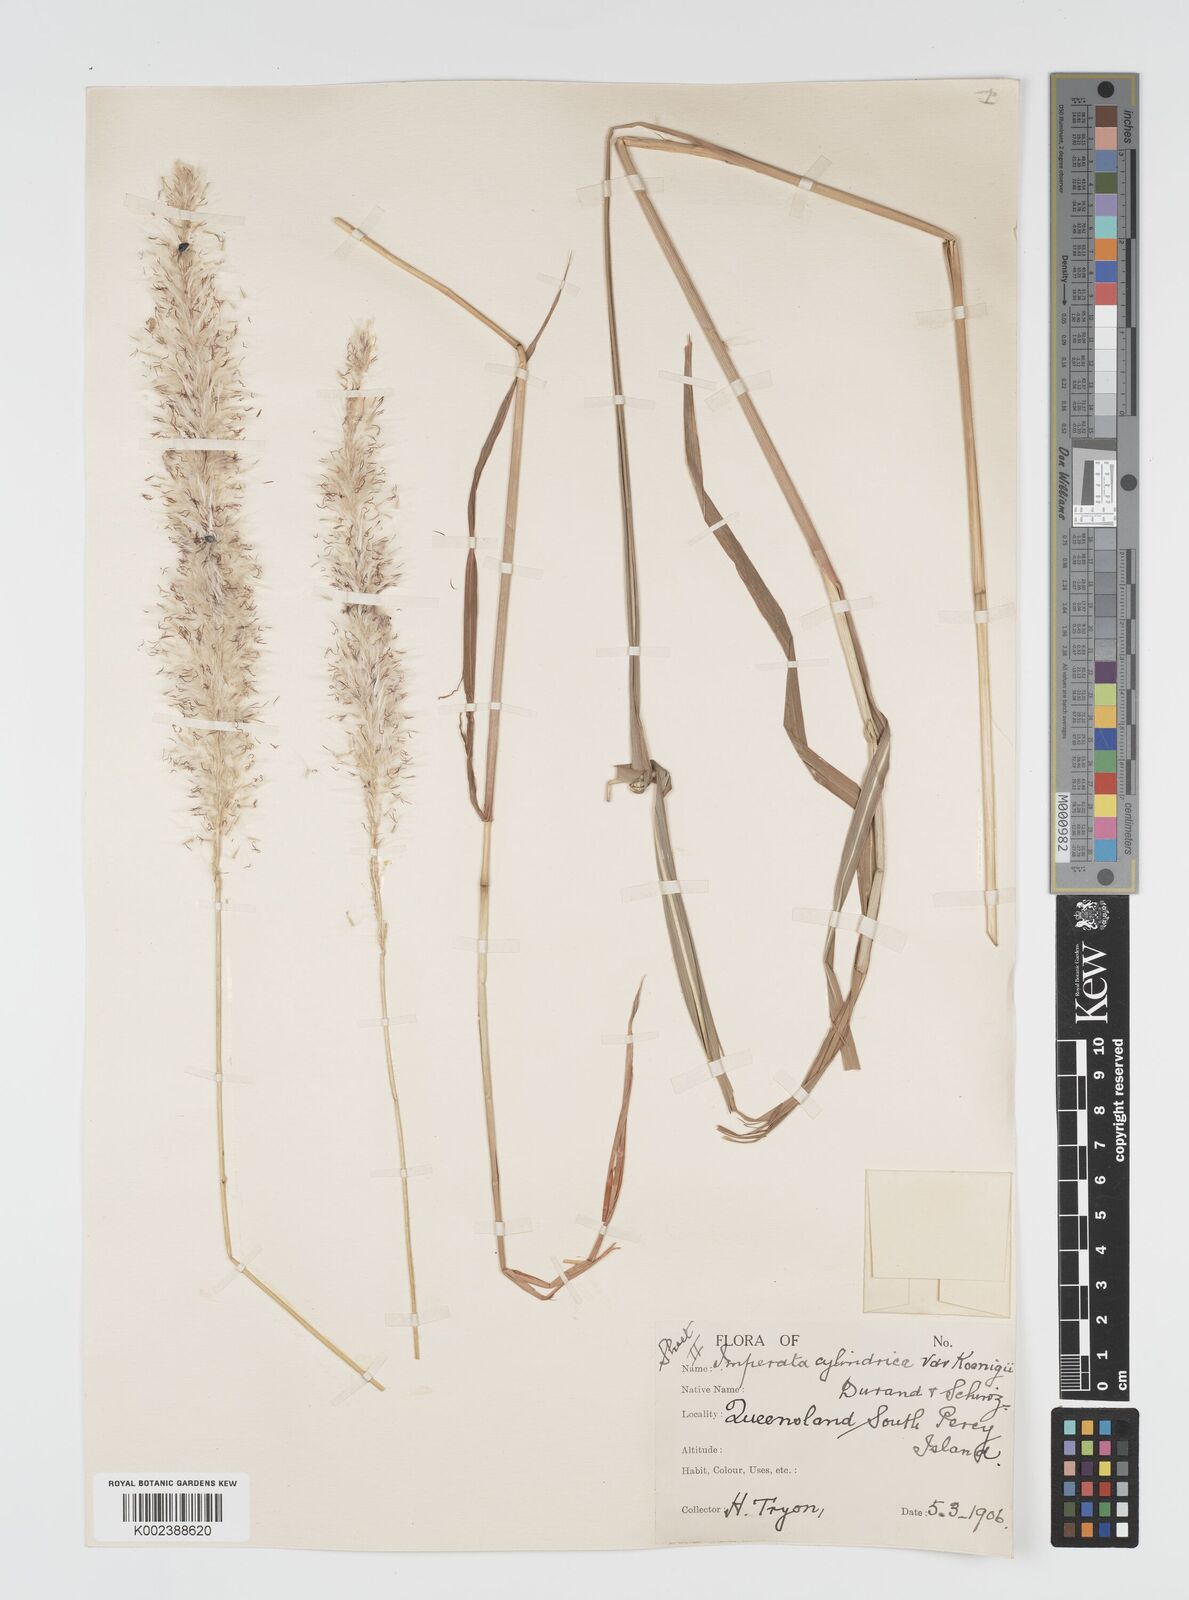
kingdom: Plantae
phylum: Tracheophyta
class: Liliopsida
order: Poales
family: Poaceae
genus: Imperata
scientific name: Imperata cylindrica
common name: Cogongrass
